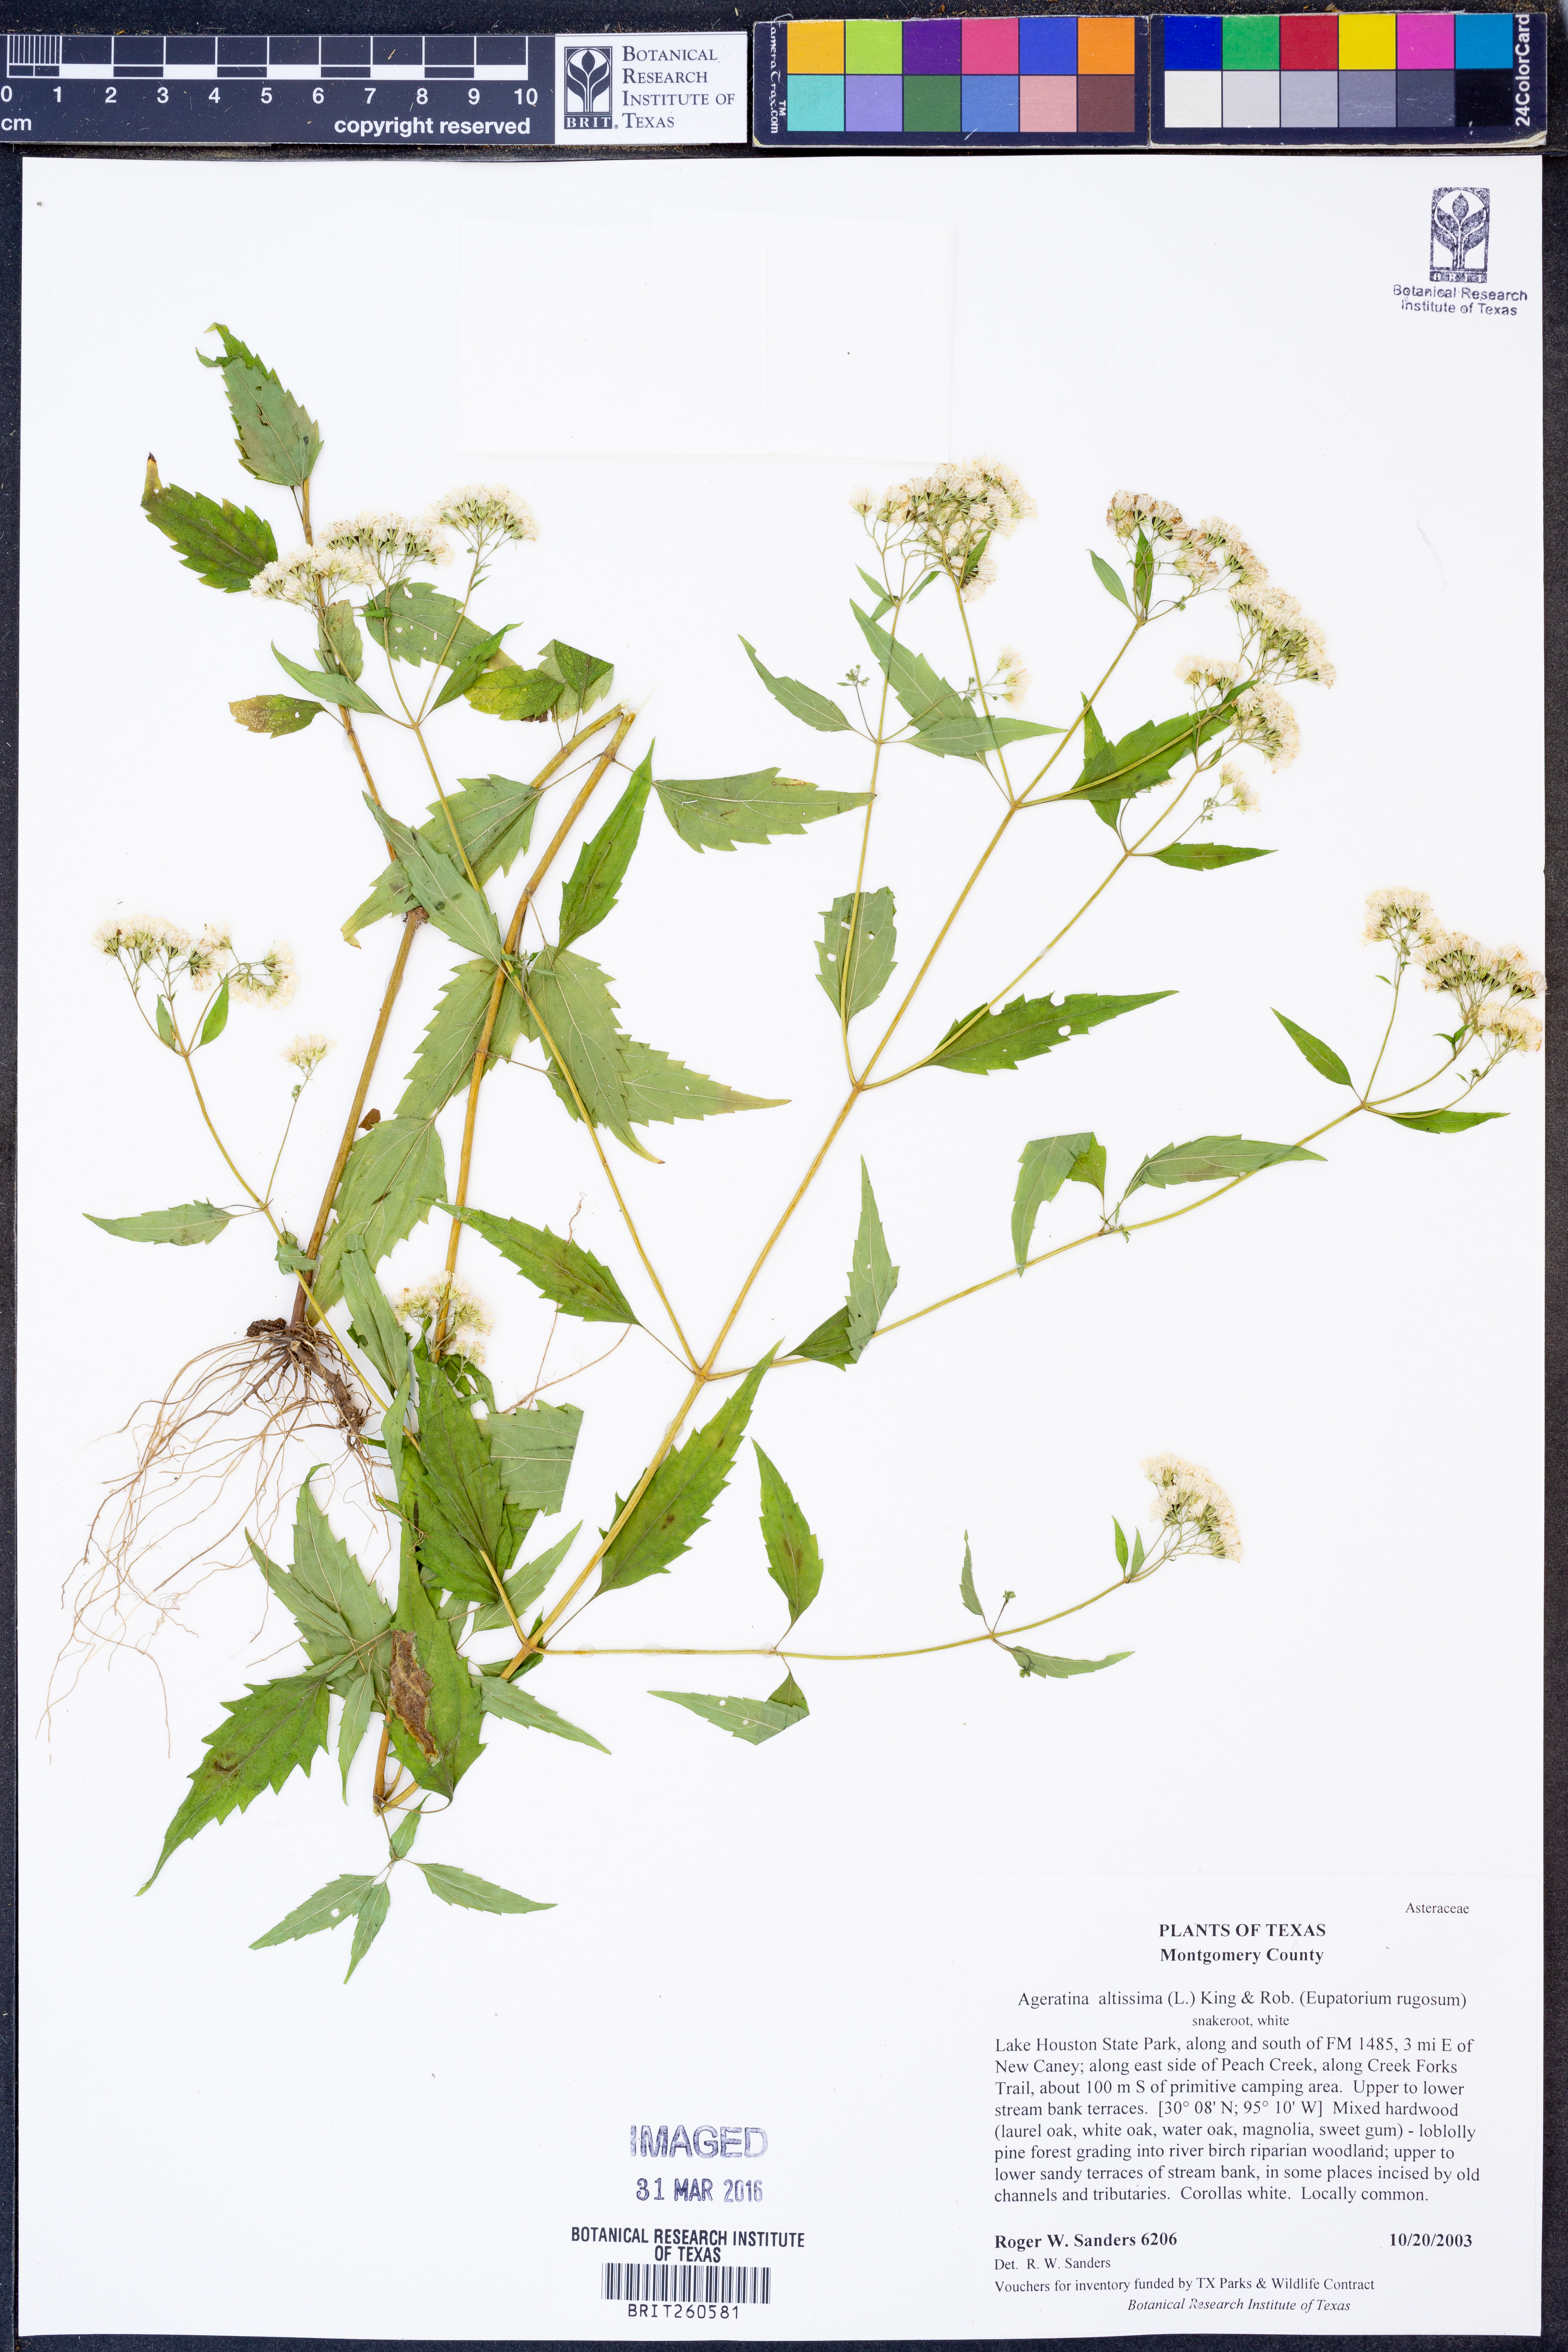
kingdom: Plantae
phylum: Tracheophyta
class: Magnoliopsida
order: Asterales
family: Asteraceae
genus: Ageratina
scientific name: Ageratina altissima
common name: White snakeroot
